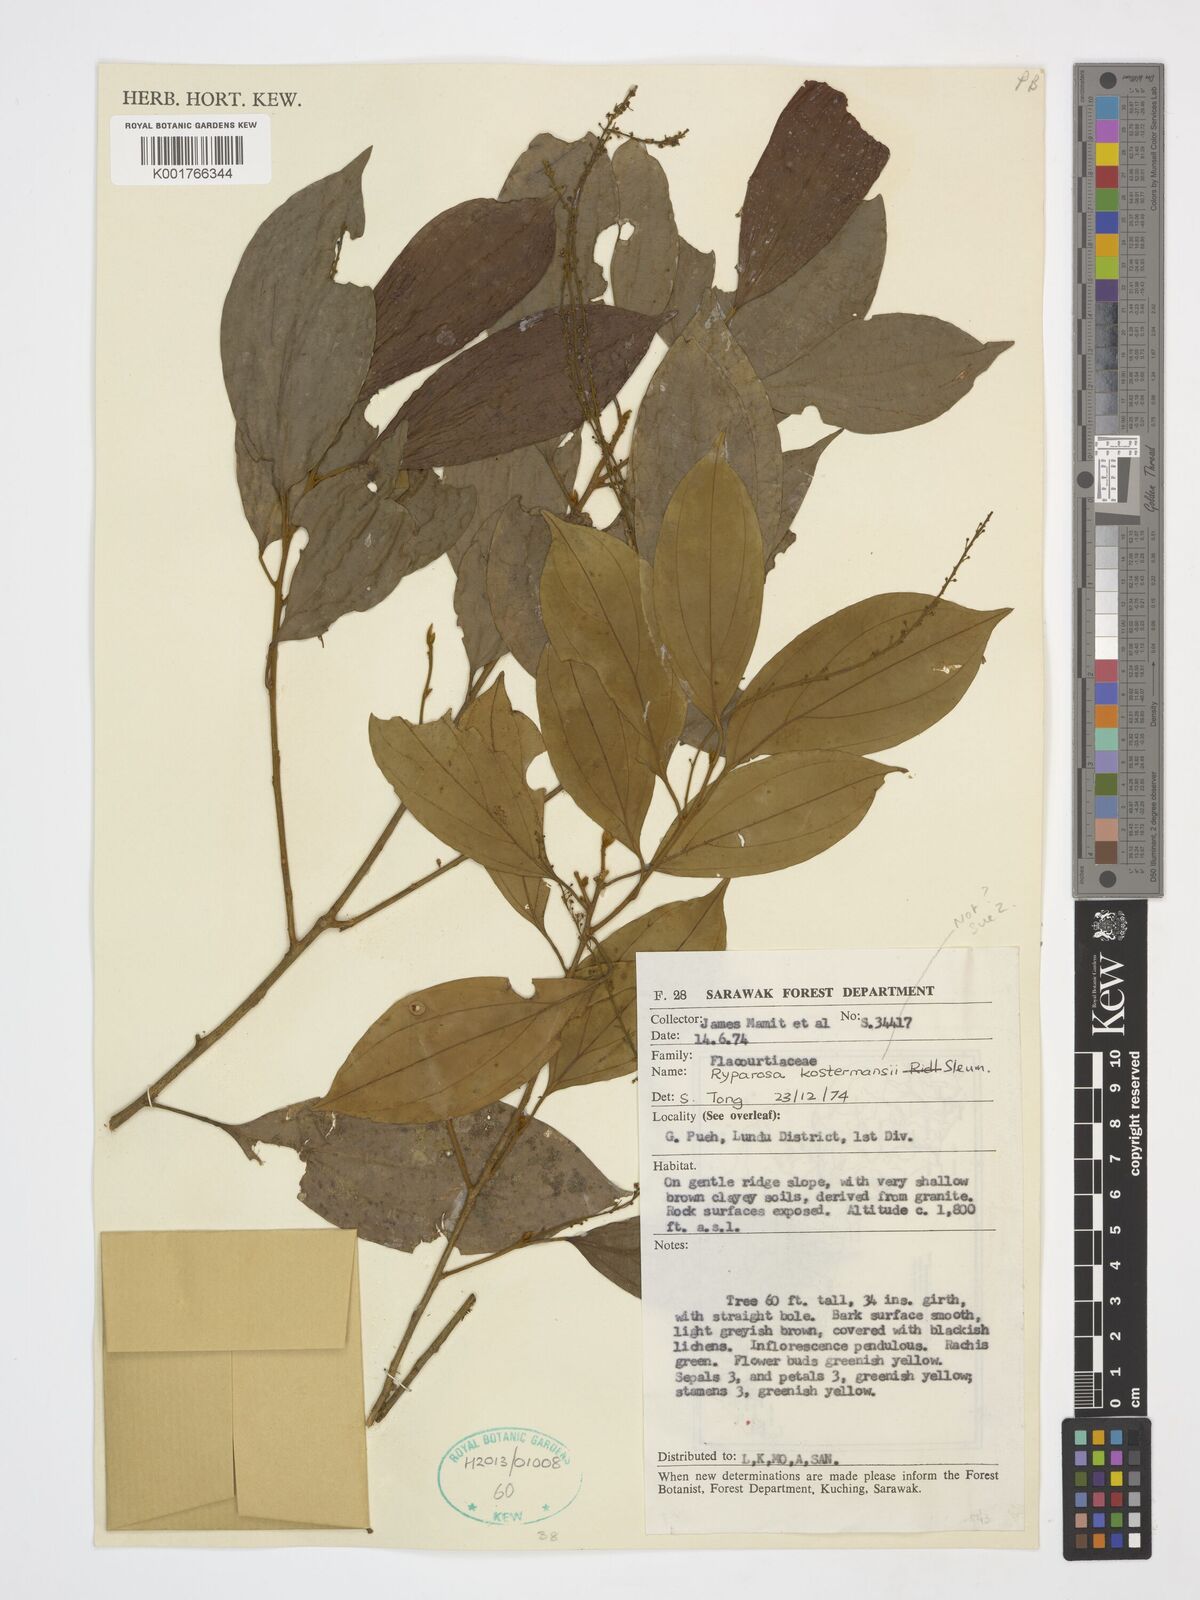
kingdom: Plantae
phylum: Tracheophyta
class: Magnoliopsida
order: Malpighiales
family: Achariaceae
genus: Ryparosa
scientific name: Ryparosa kostermansii
